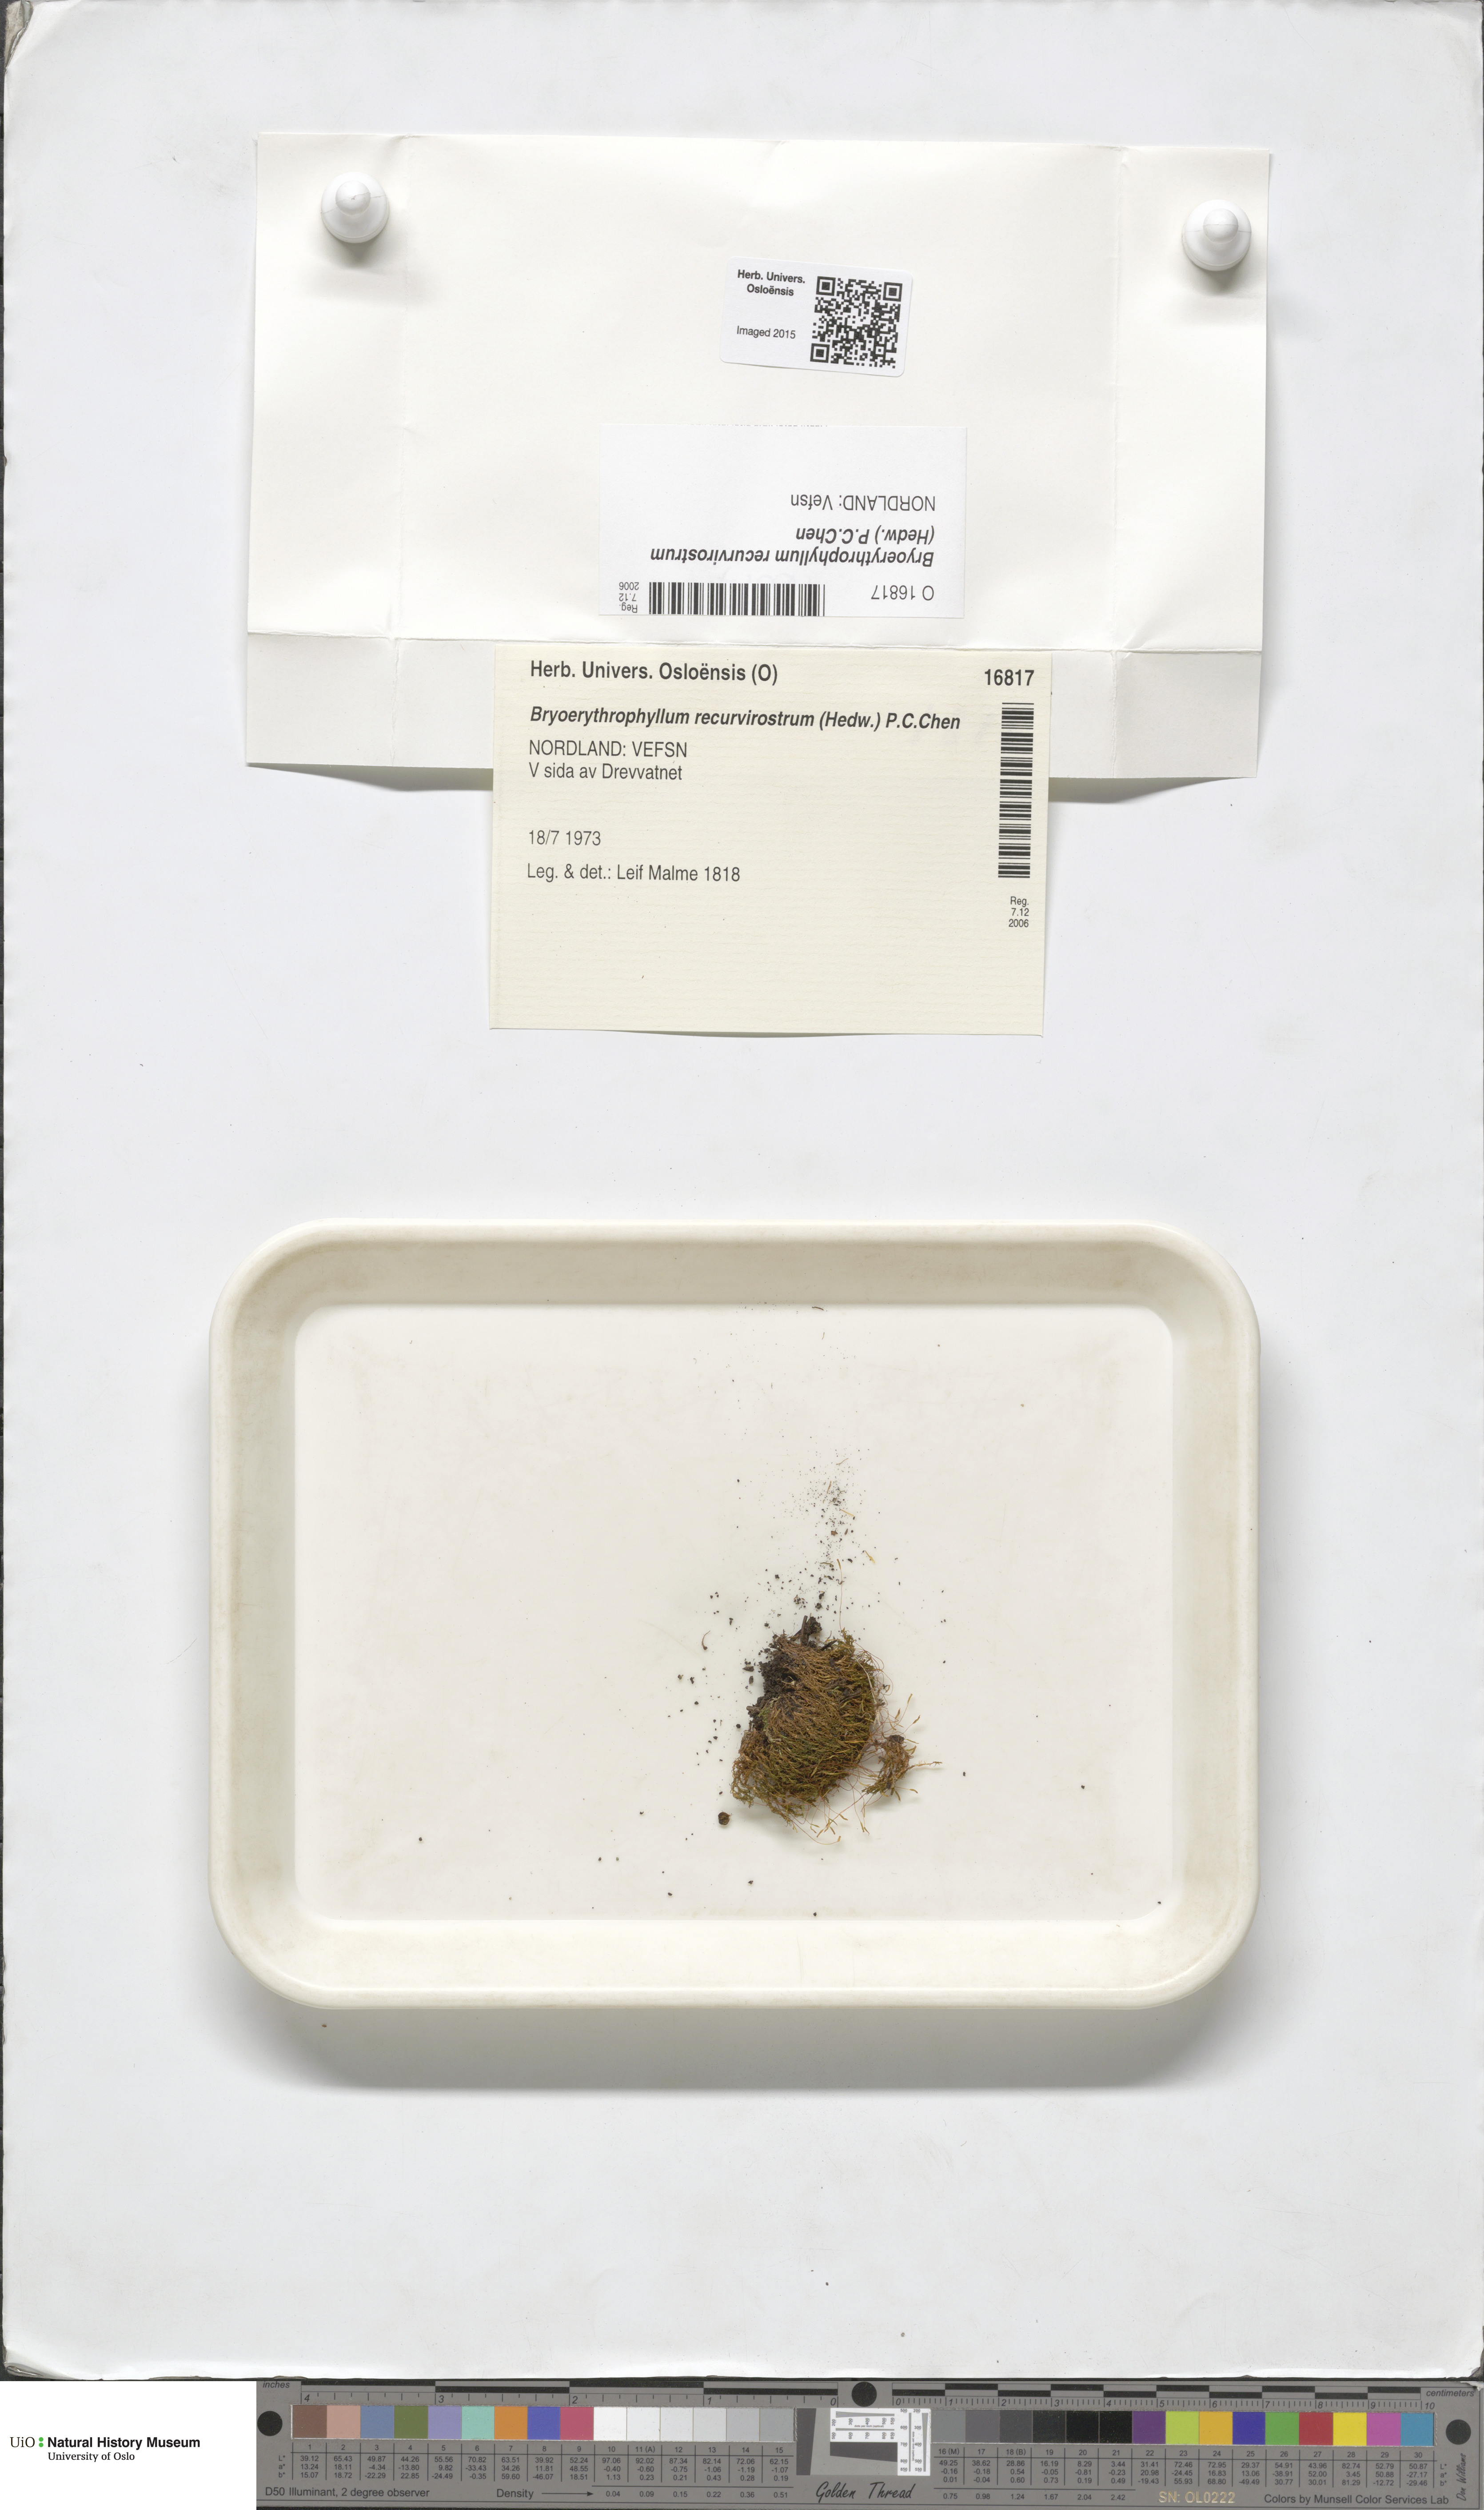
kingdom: Plantae
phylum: Bryophyta
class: Bryopsida
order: Pottiales
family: Pottiaceae
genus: Bryoerythrophyllum
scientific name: Bryoerythrophyllum recurvirostrum
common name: Red beard moss
